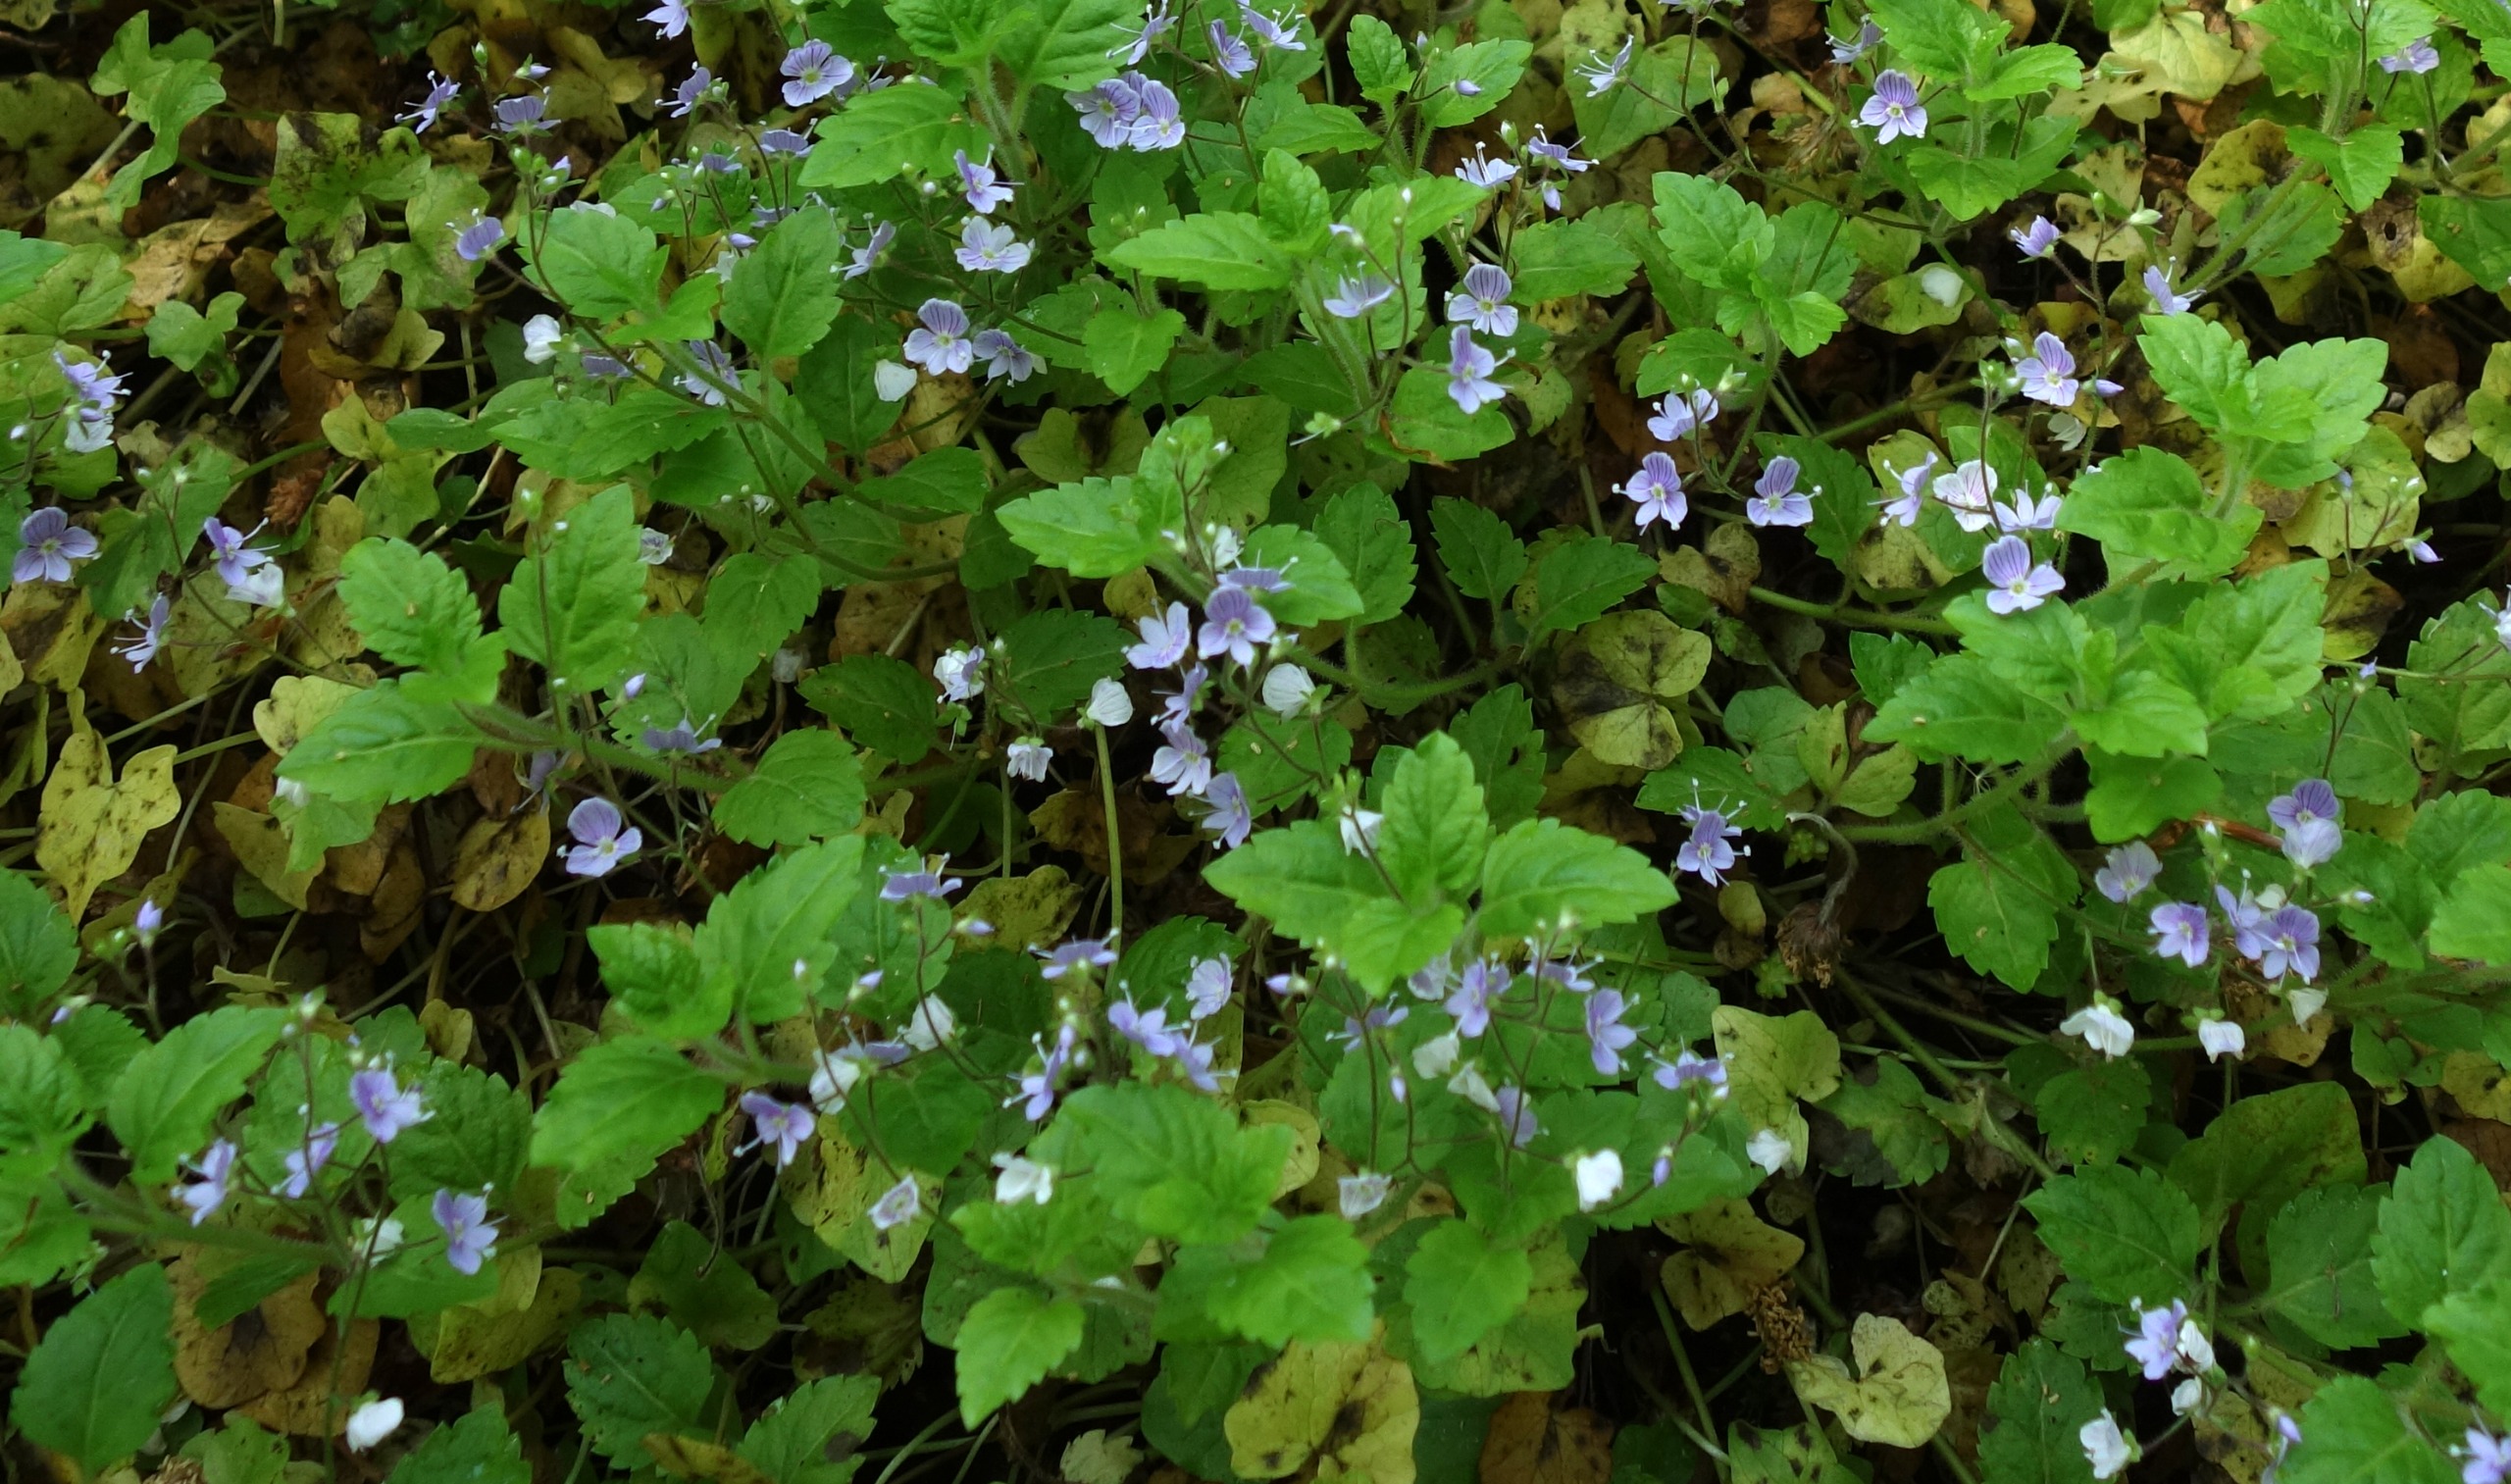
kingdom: Plantae
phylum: Tracheophyta
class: Magnoliopsida
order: Lamiales
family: Plantaginaceae
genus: Veronica
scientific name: Veronica montana
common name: Bjerg-ærenpris
